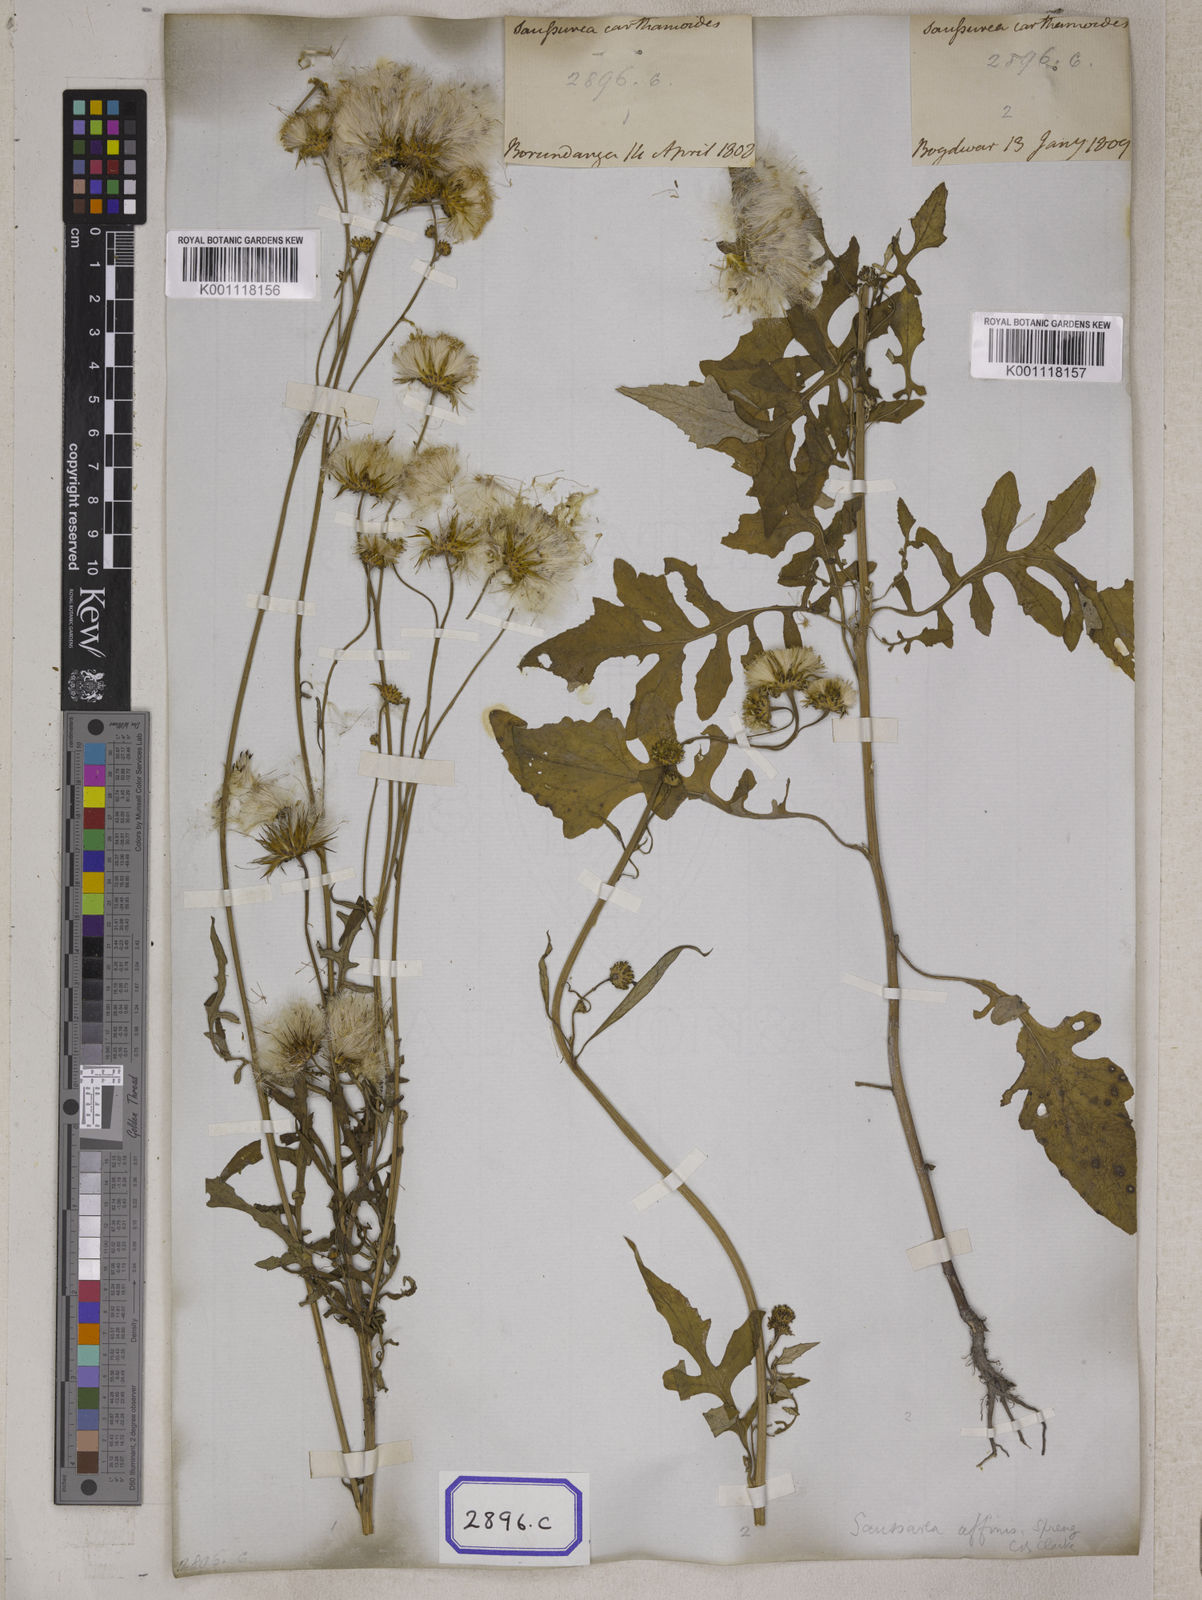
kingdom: Plantae
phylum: Tracheophyta
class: Magnoliopsida
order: Asterales
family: Asteraceae
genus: Saussurea
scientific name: Saussurea lyrata
